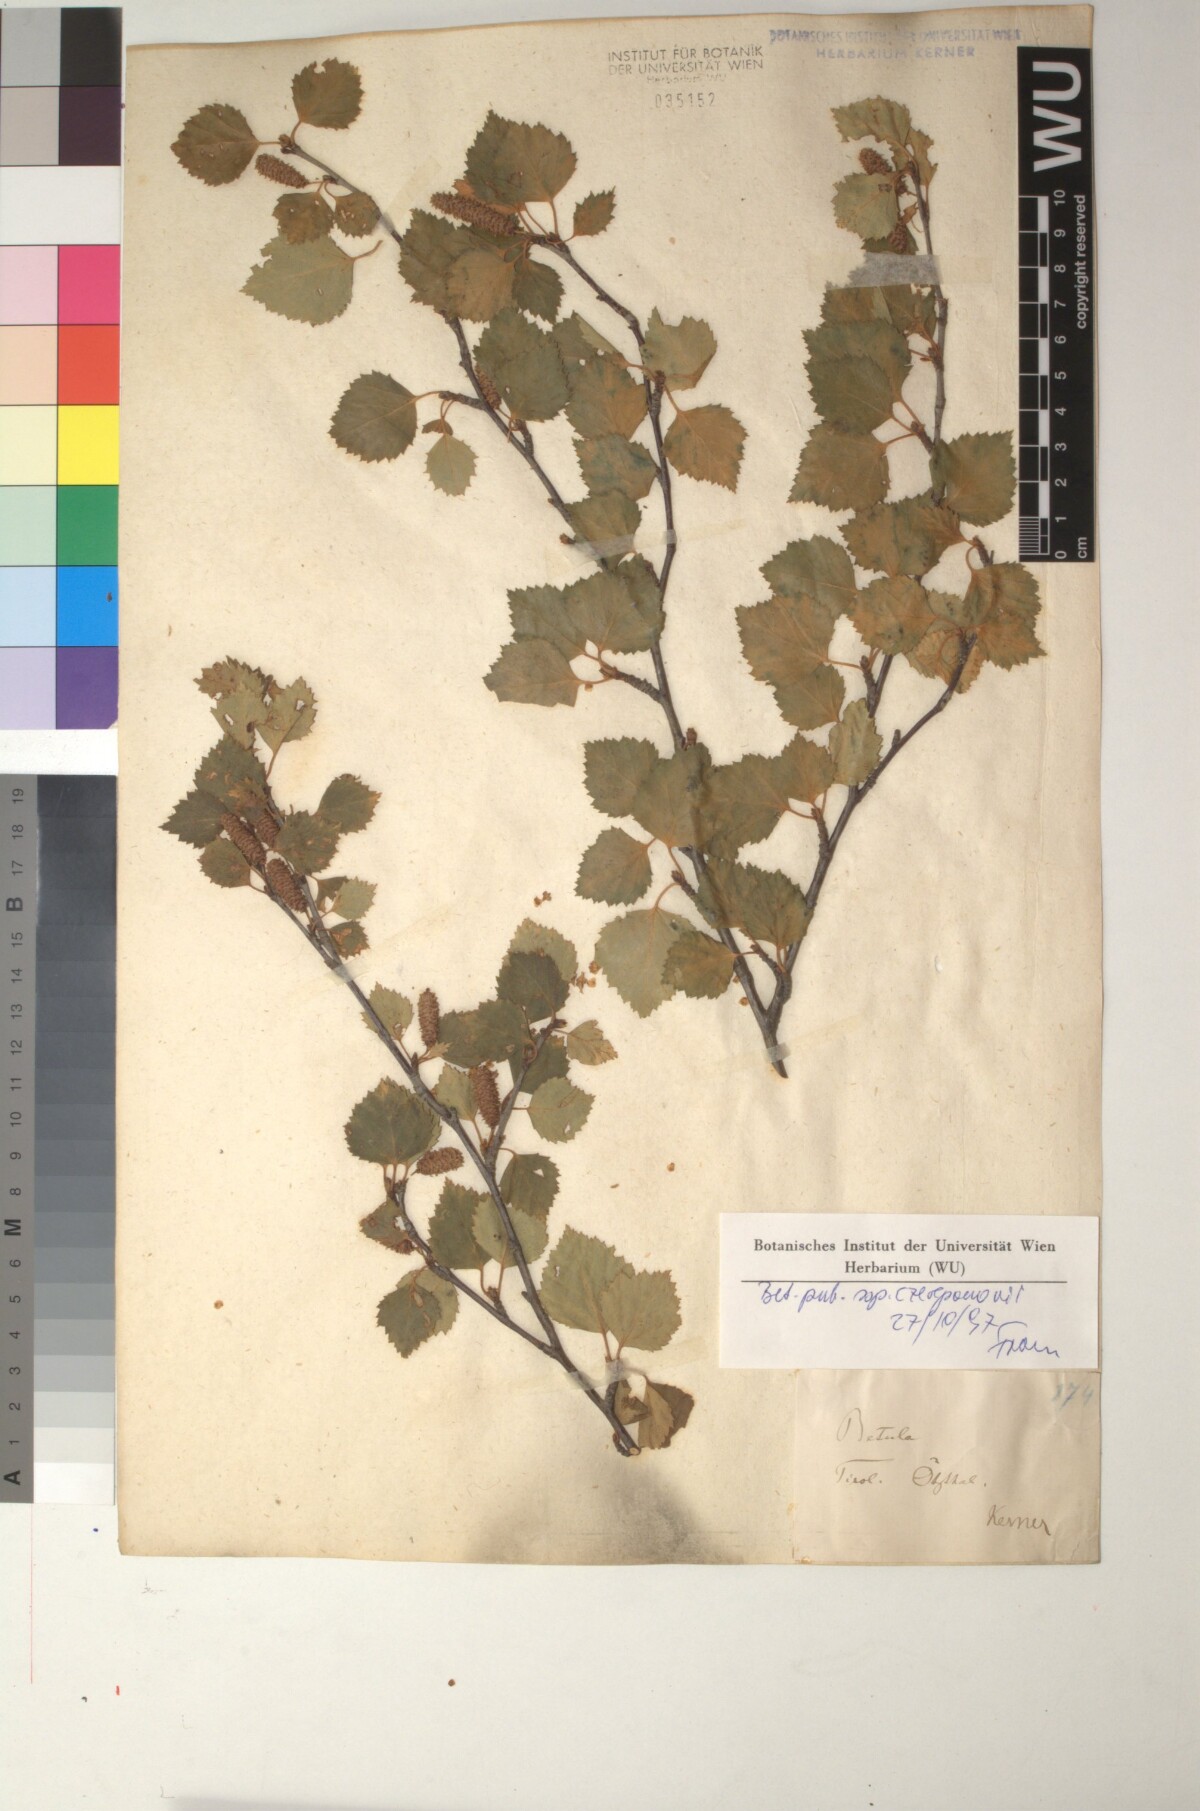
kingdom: Plantae
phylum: Tracheophyta
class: Magnoliopsida
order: Fagales
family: Betulaceae
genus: Betula
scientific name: Betula pubescens
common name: Downy birch
